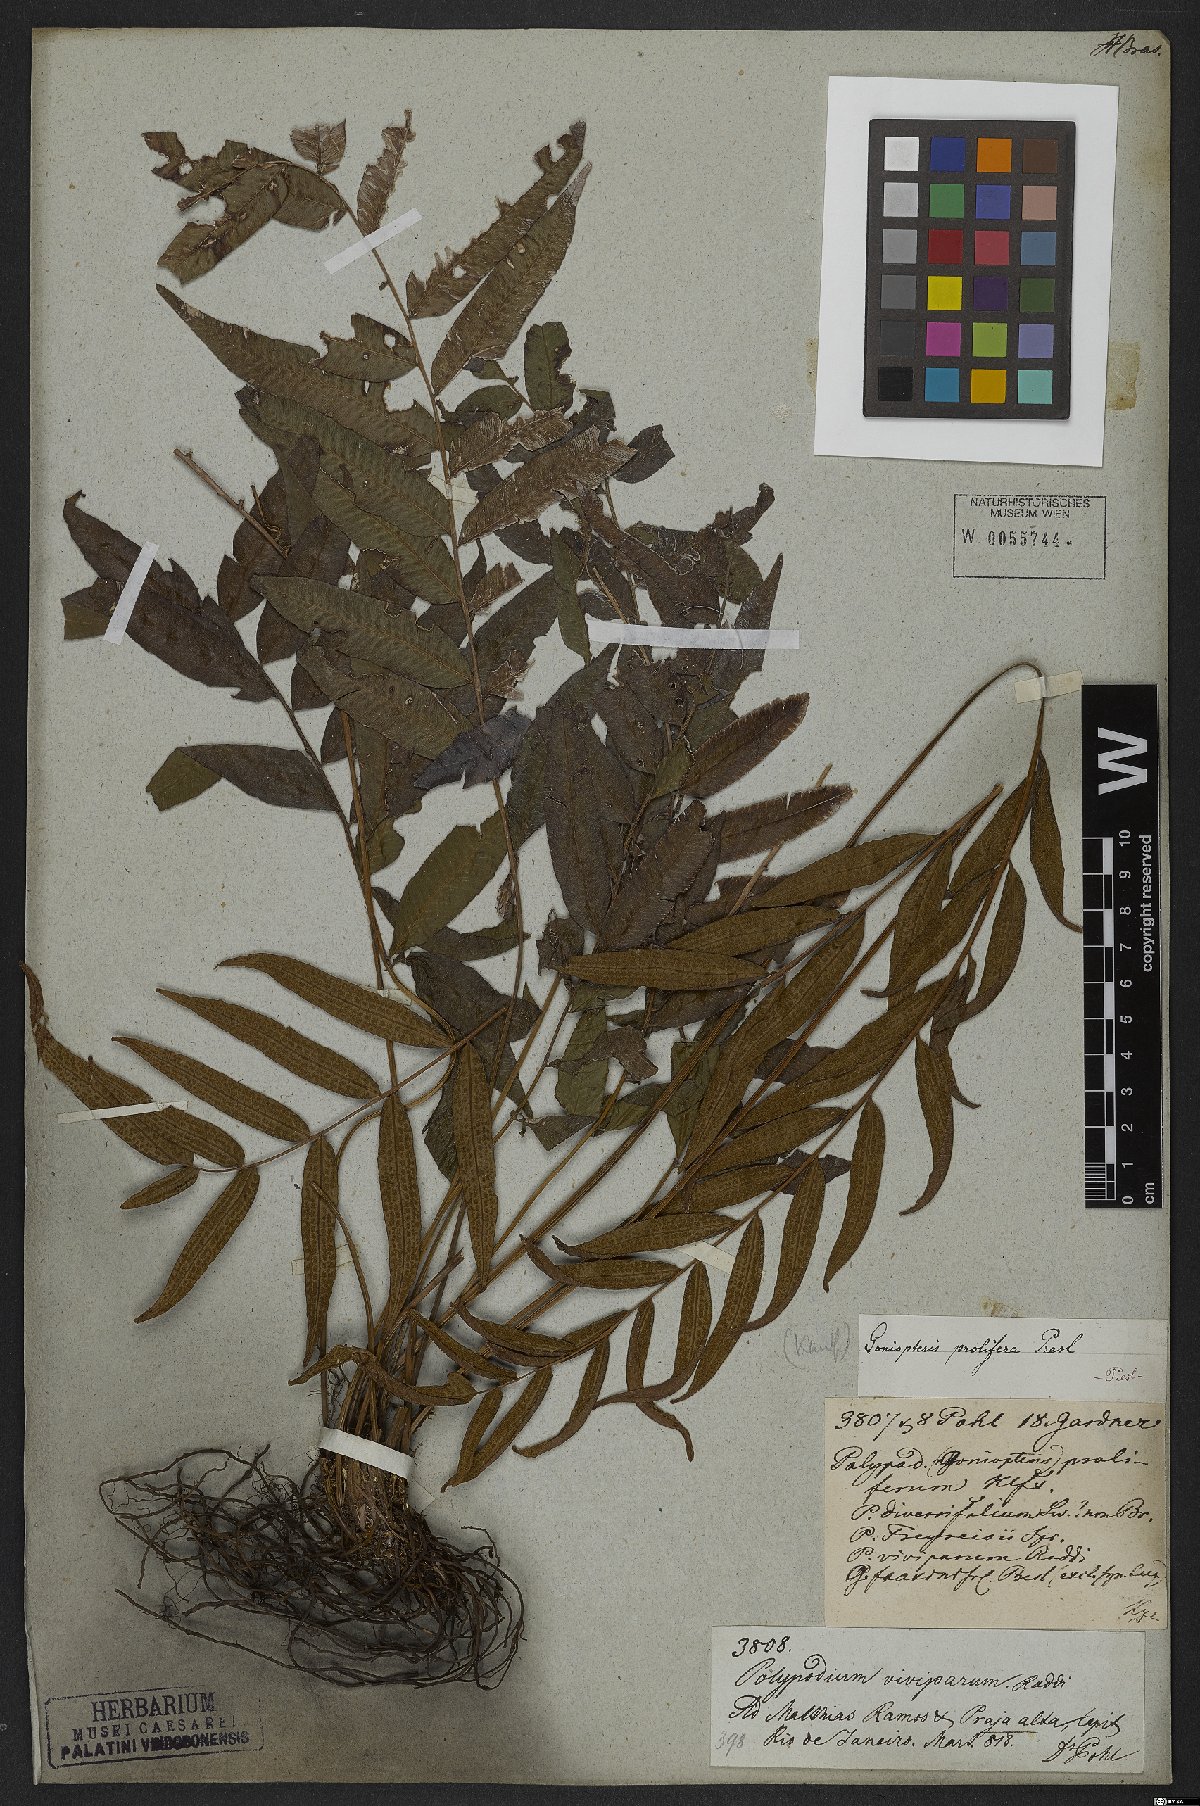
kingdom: Plantae
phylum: Tracheophyta
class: Polypodiopsida
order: Polypodiales
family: Thelypteridaceae
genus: Goniopteris
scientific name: Goniopteris vivipara
